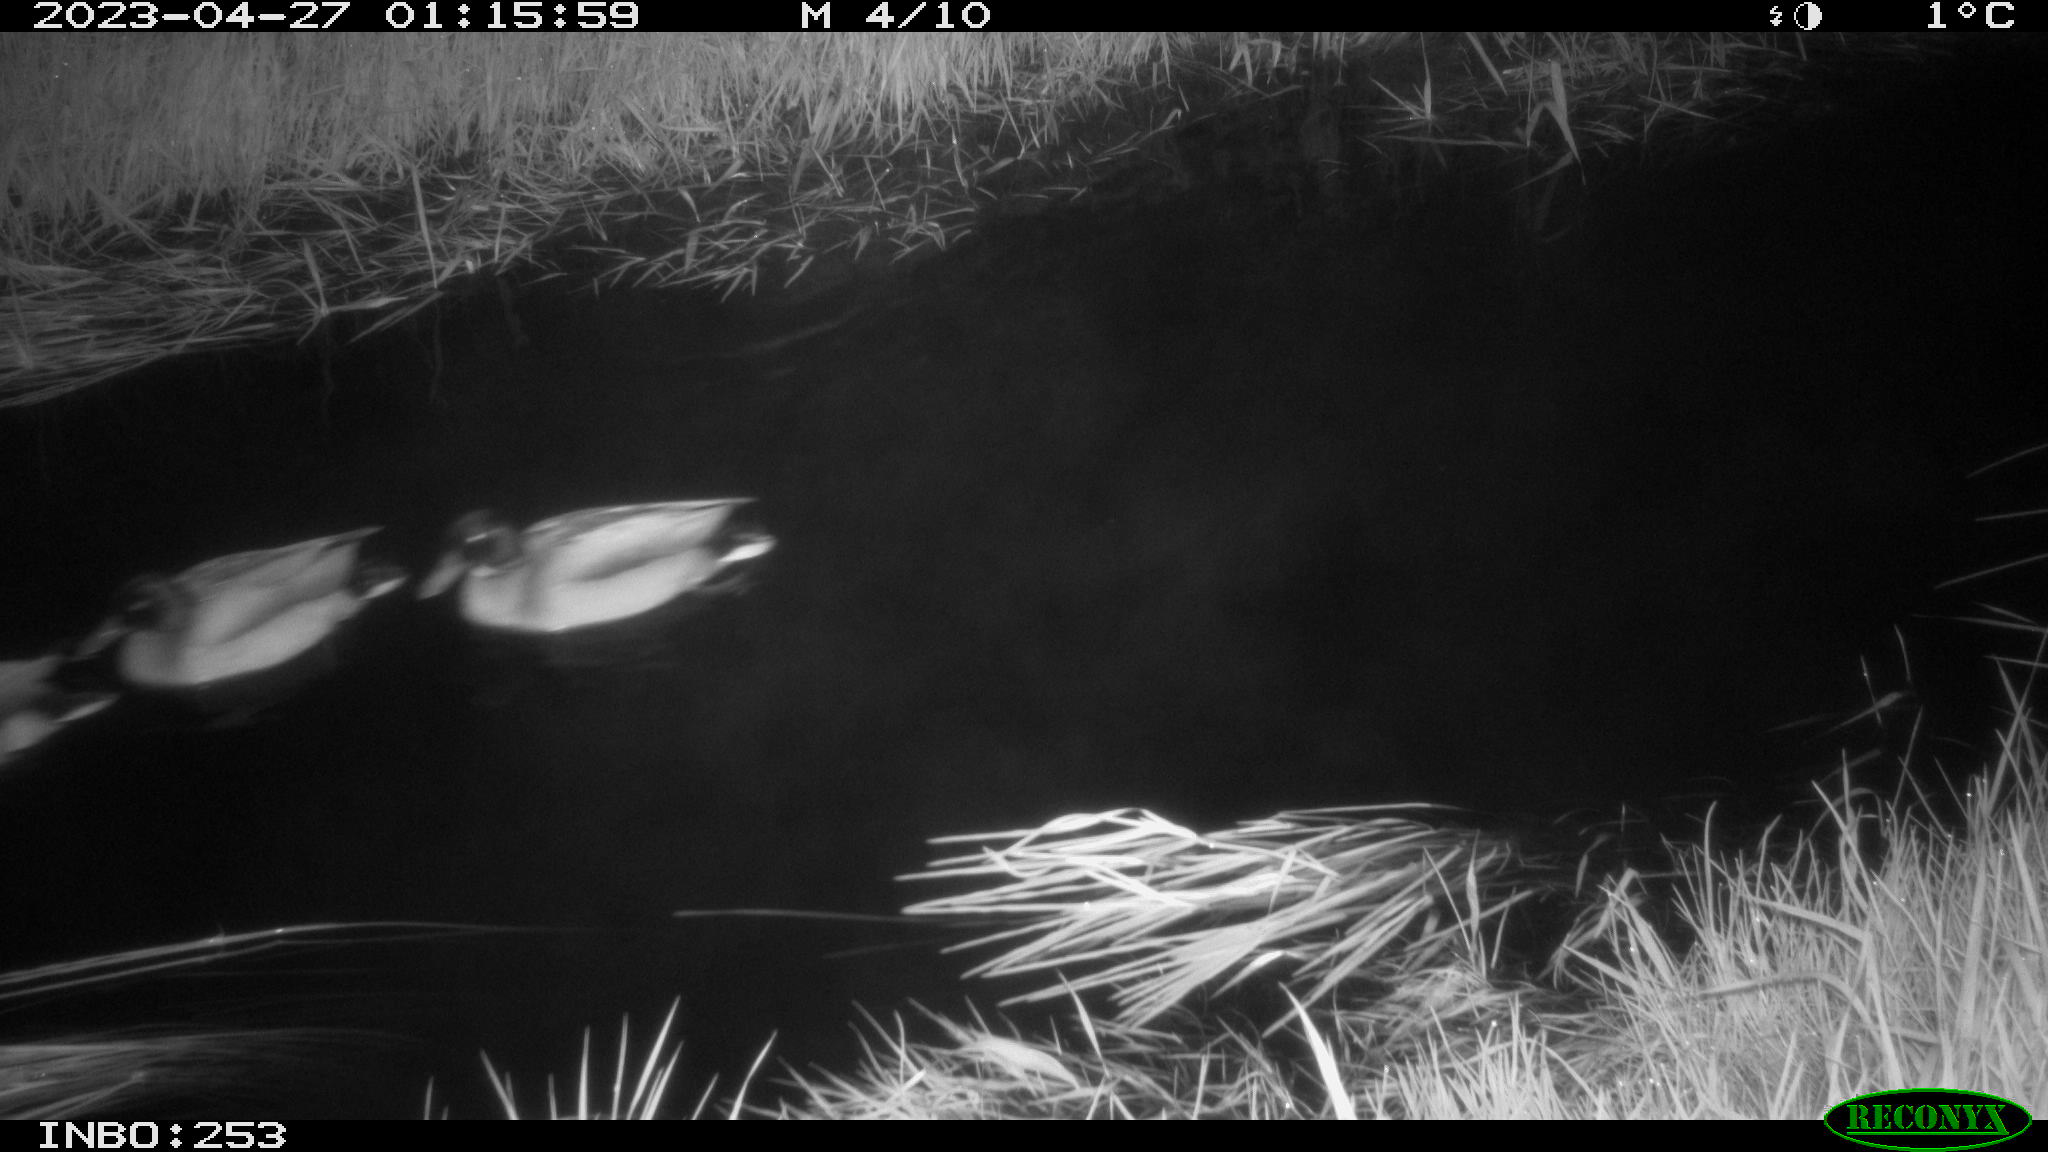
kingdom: Animalia
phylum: Chordata
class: Aves
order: Anseriformes
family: Anatidae
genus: Anas
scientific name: Anas
